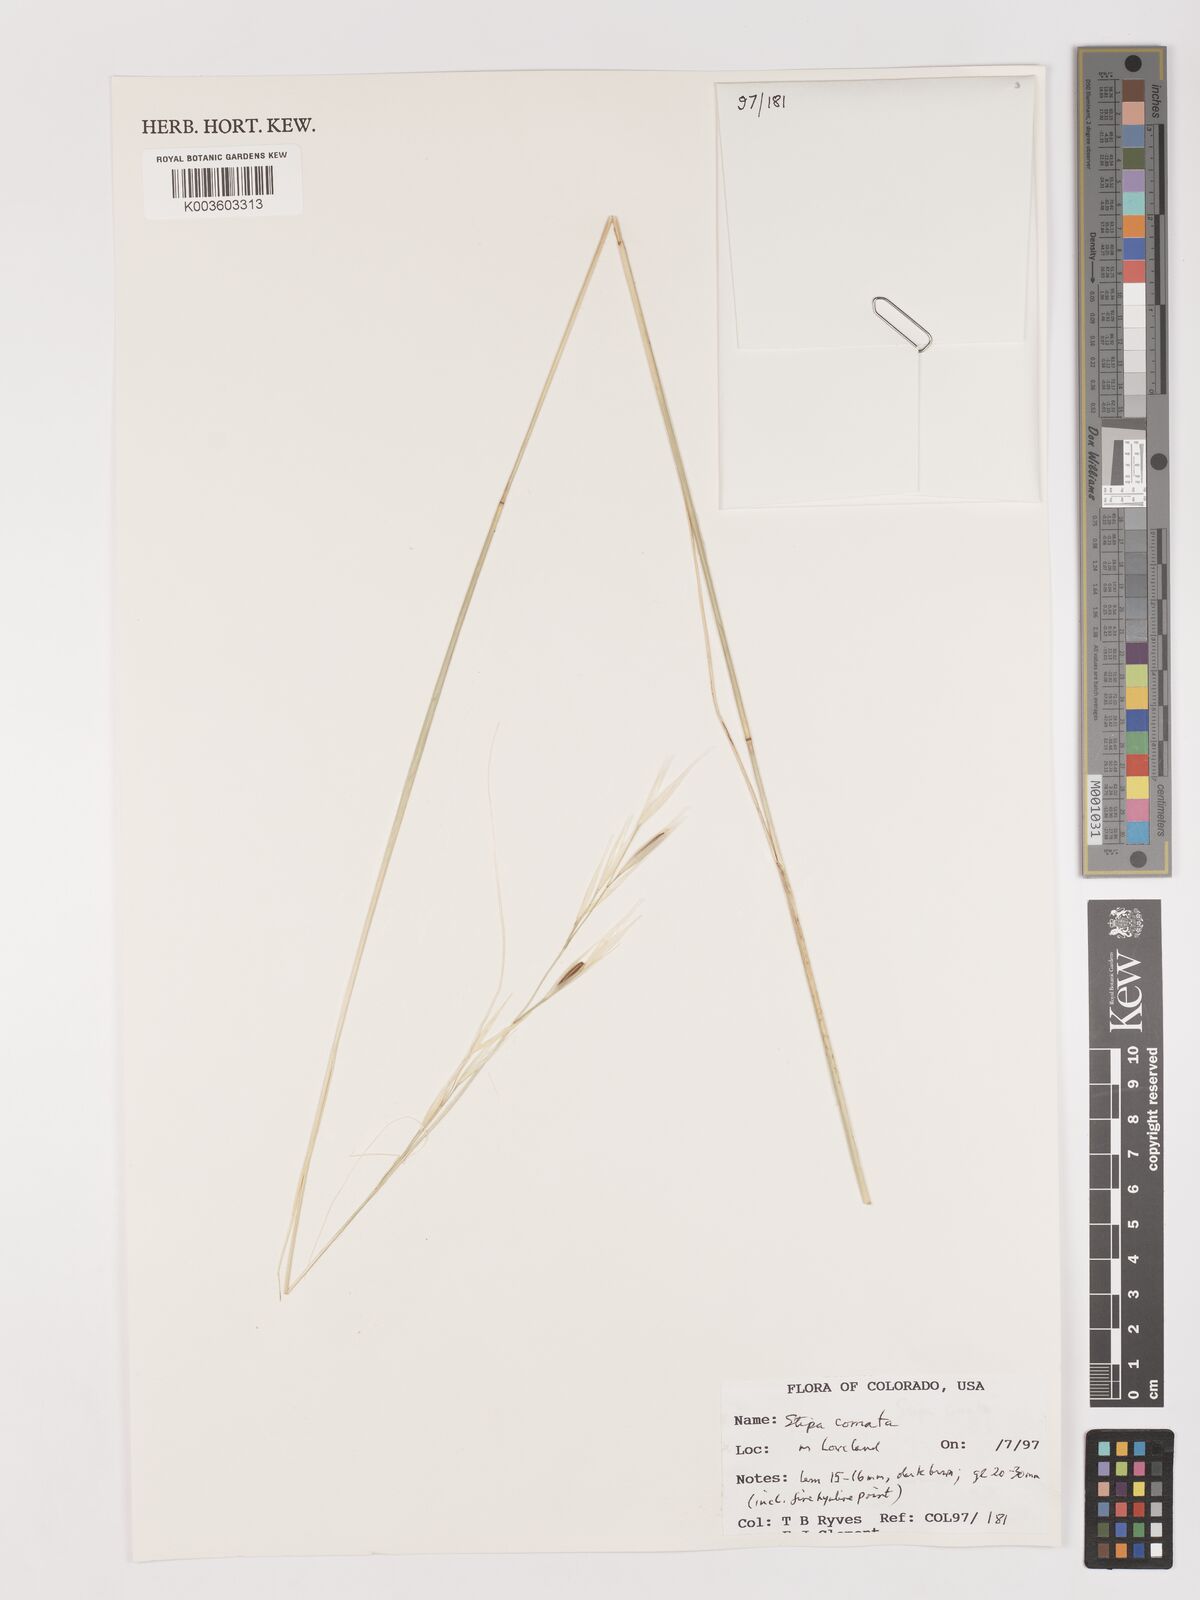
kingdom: Plantae
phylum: Tracheophyta
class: Liliopsida
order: Poales
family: Poaceae
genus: Stipa
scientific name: Stipa
